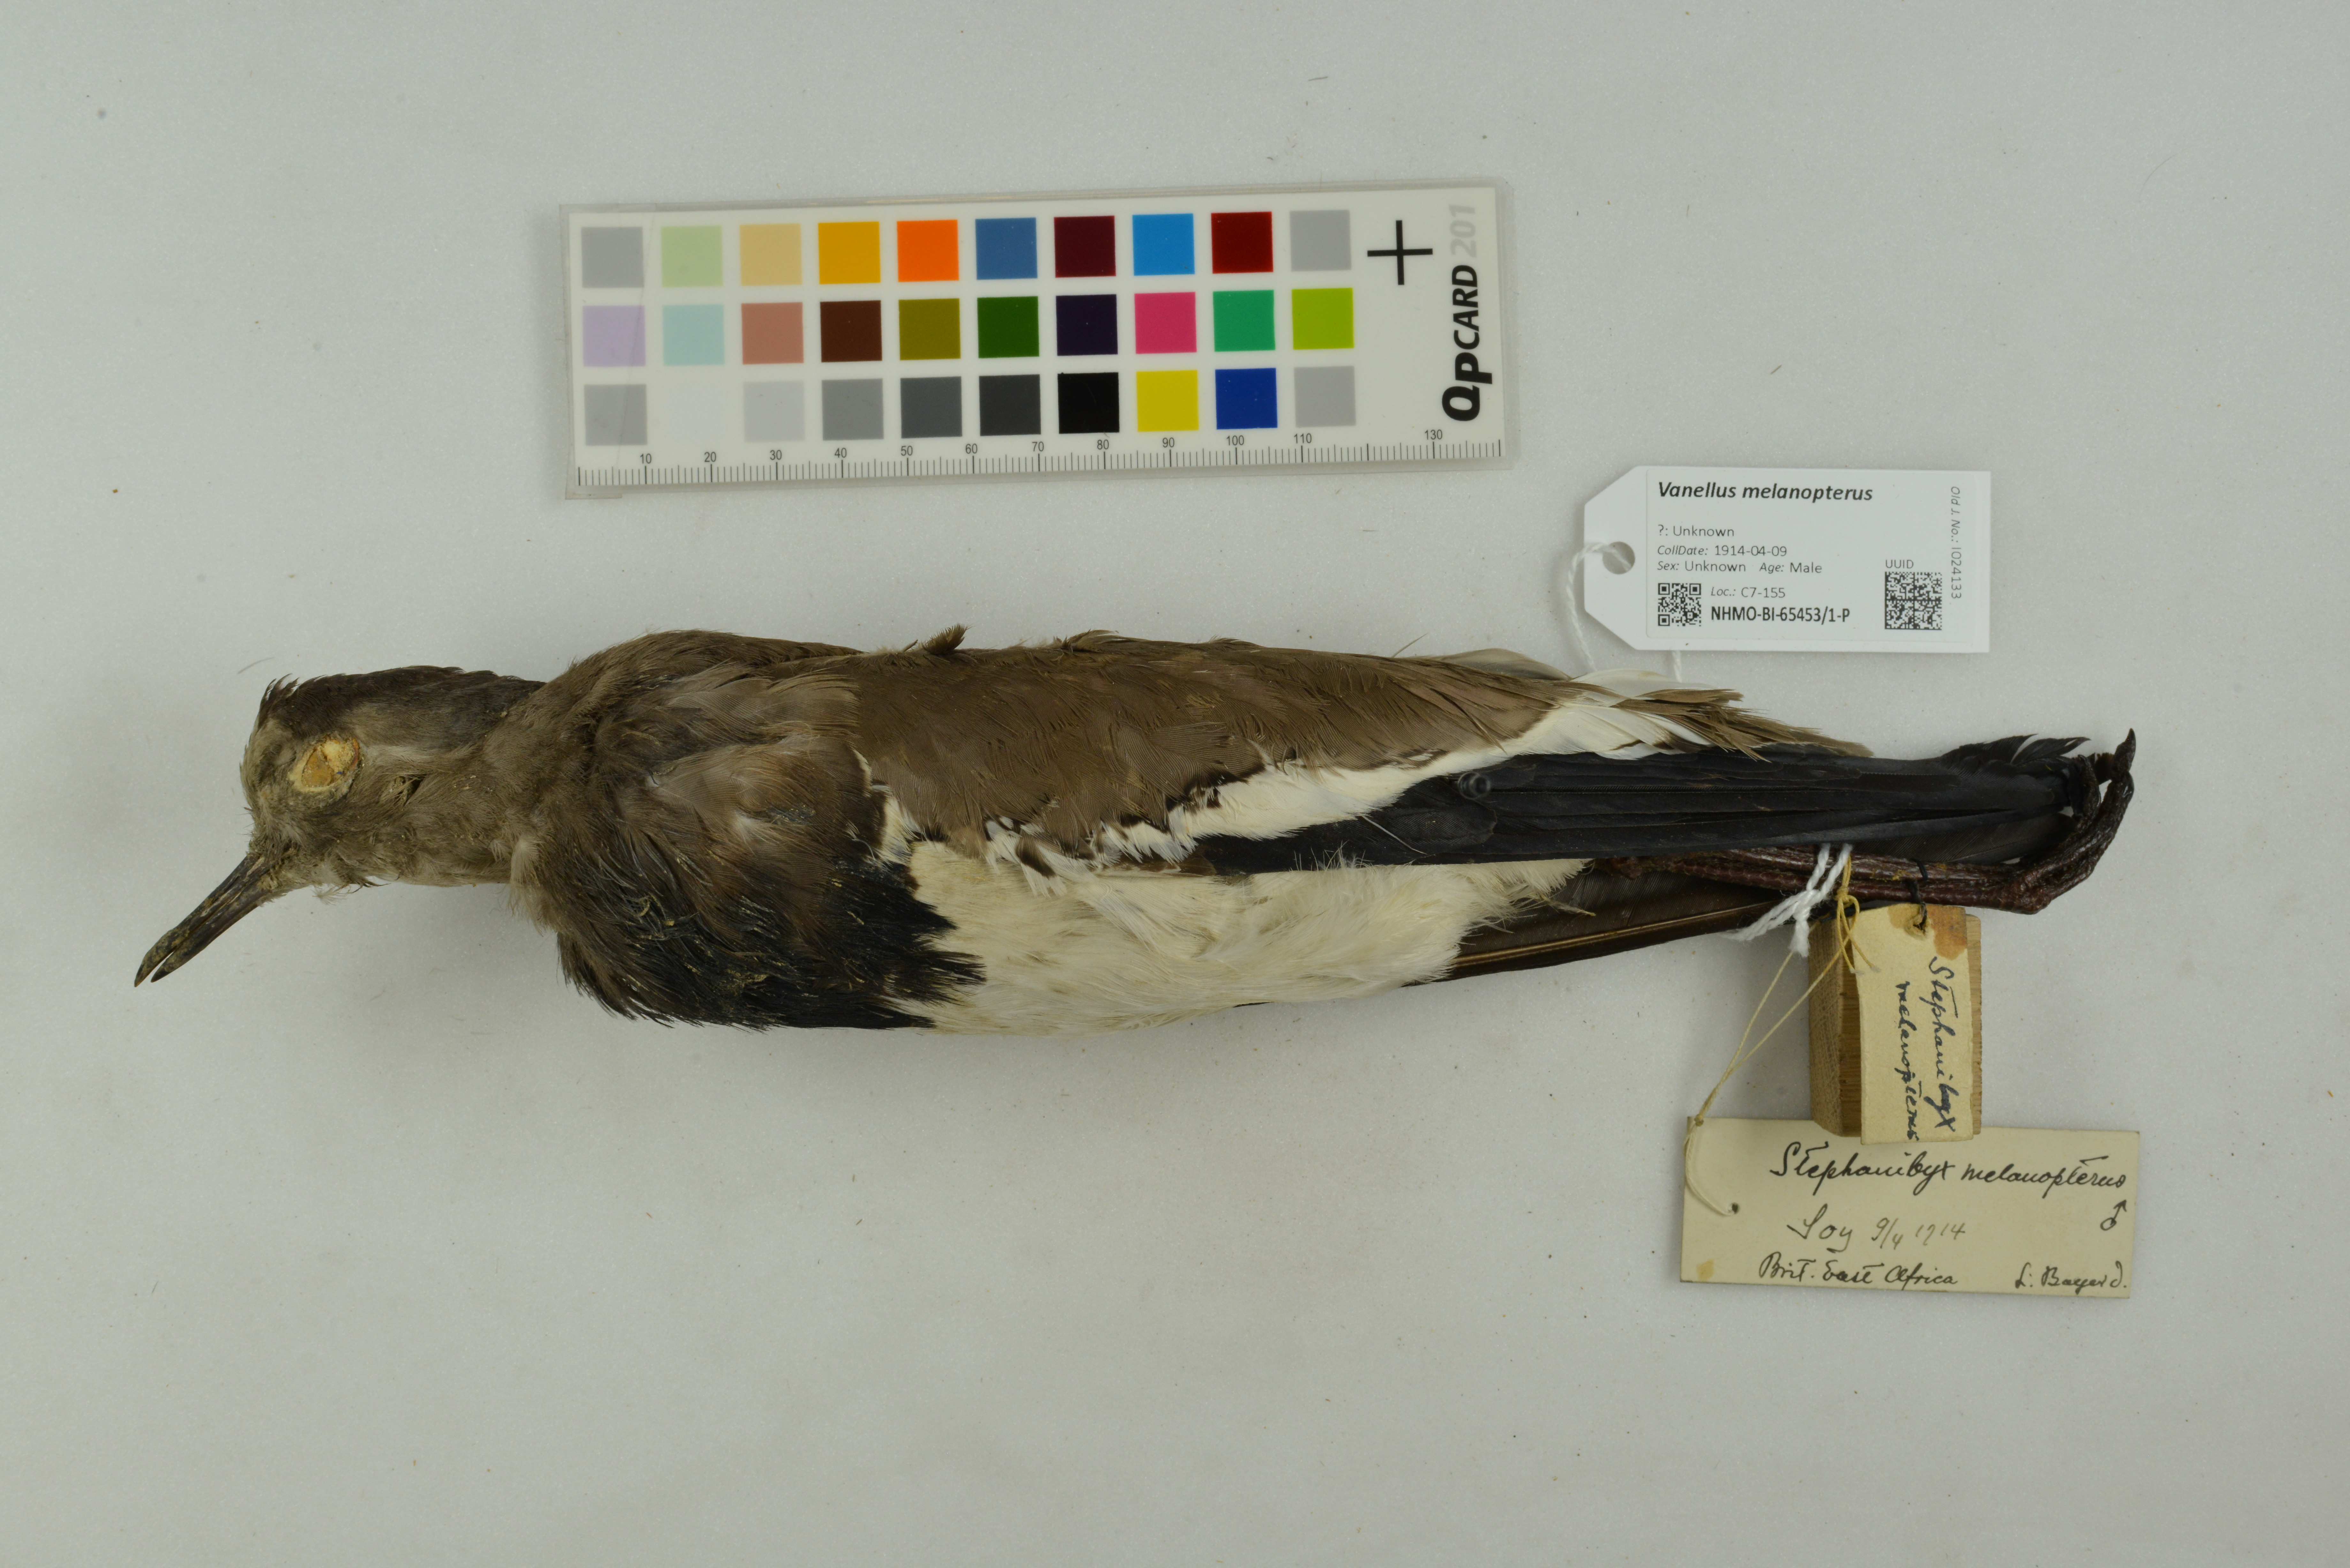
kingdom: Animalia
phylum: Chordata
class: Aves
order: Charadriiformes
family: Charadriidae
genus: Vanellus
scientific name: Vanellus melanopterus
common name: Black-winged lapwing
